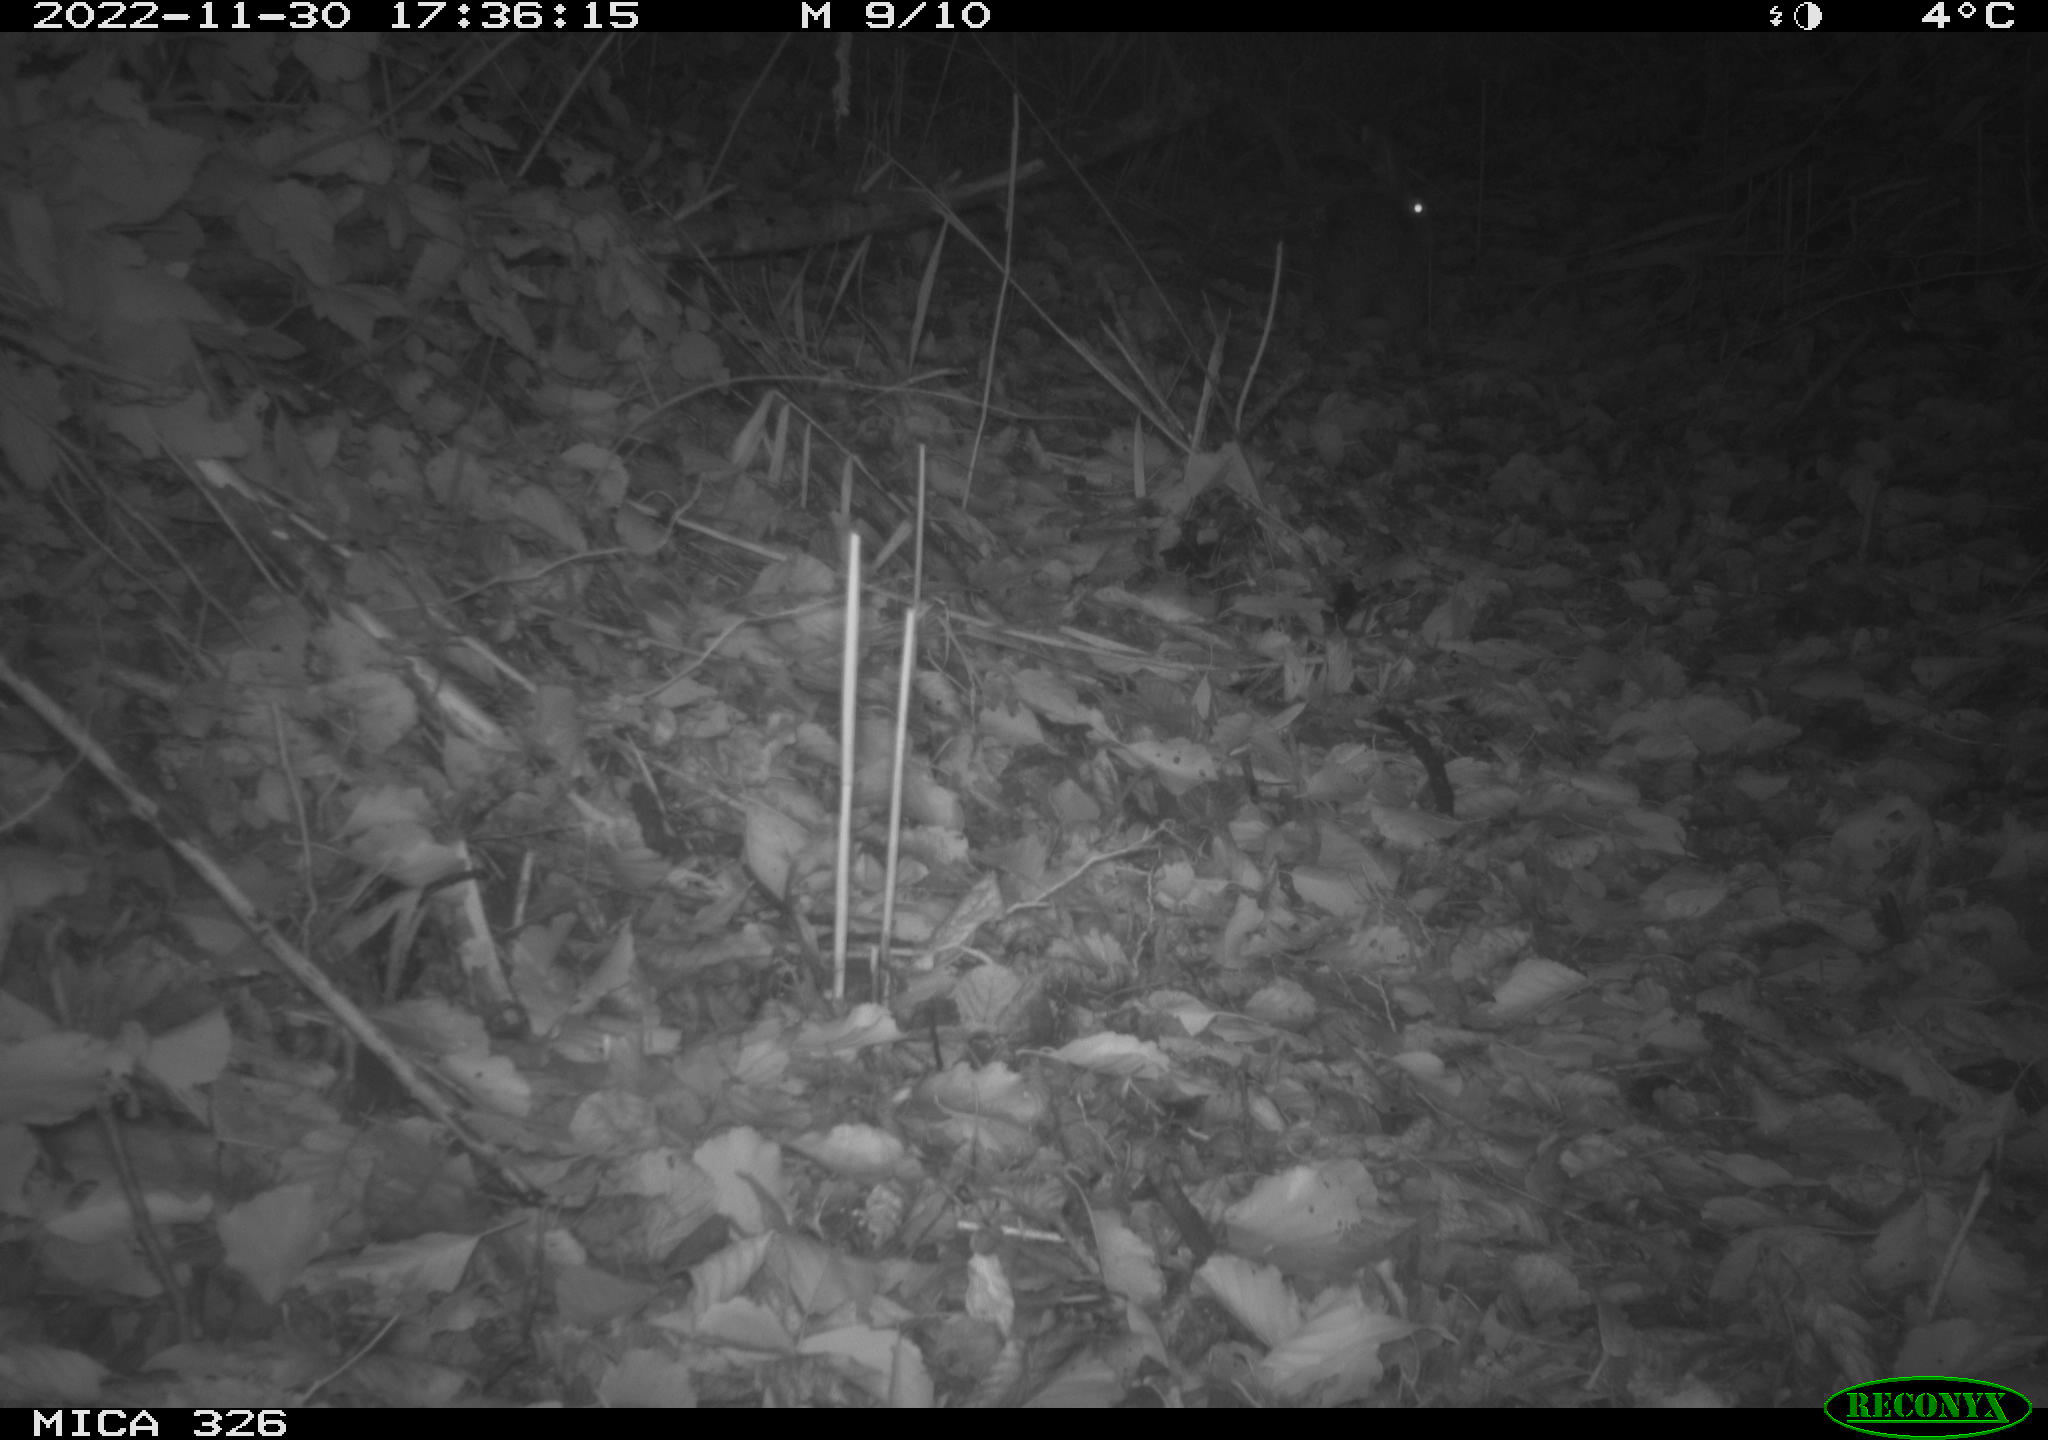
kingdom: Animalia
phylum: Chordata
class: Mammalia
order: Lagomorpha
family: Leporidae
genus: Lepus
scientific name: Lepus europaeus
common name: European hare
